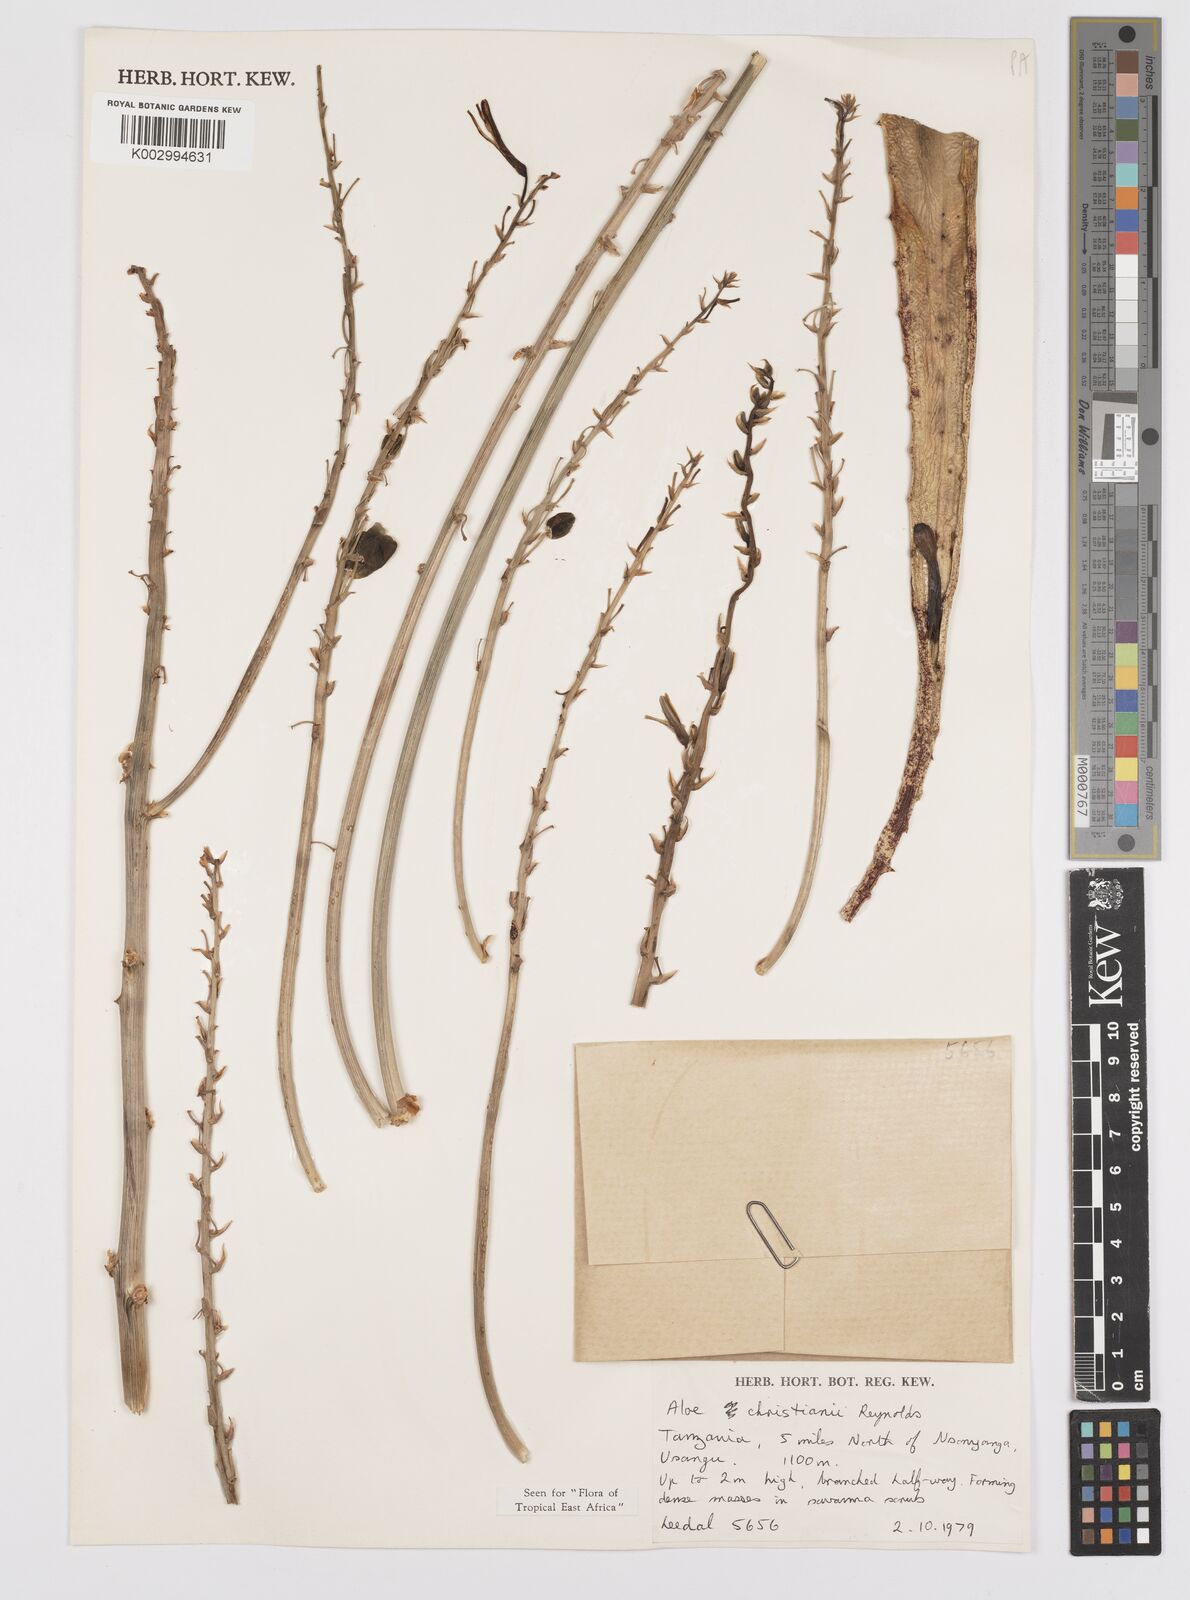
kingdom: Plantae
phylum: Tracheophyta
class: Liliopsida
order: Asparagales
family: Asphodelaceae
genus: Aloe
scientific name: Aloe christianii
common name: Basil christian's aloe
